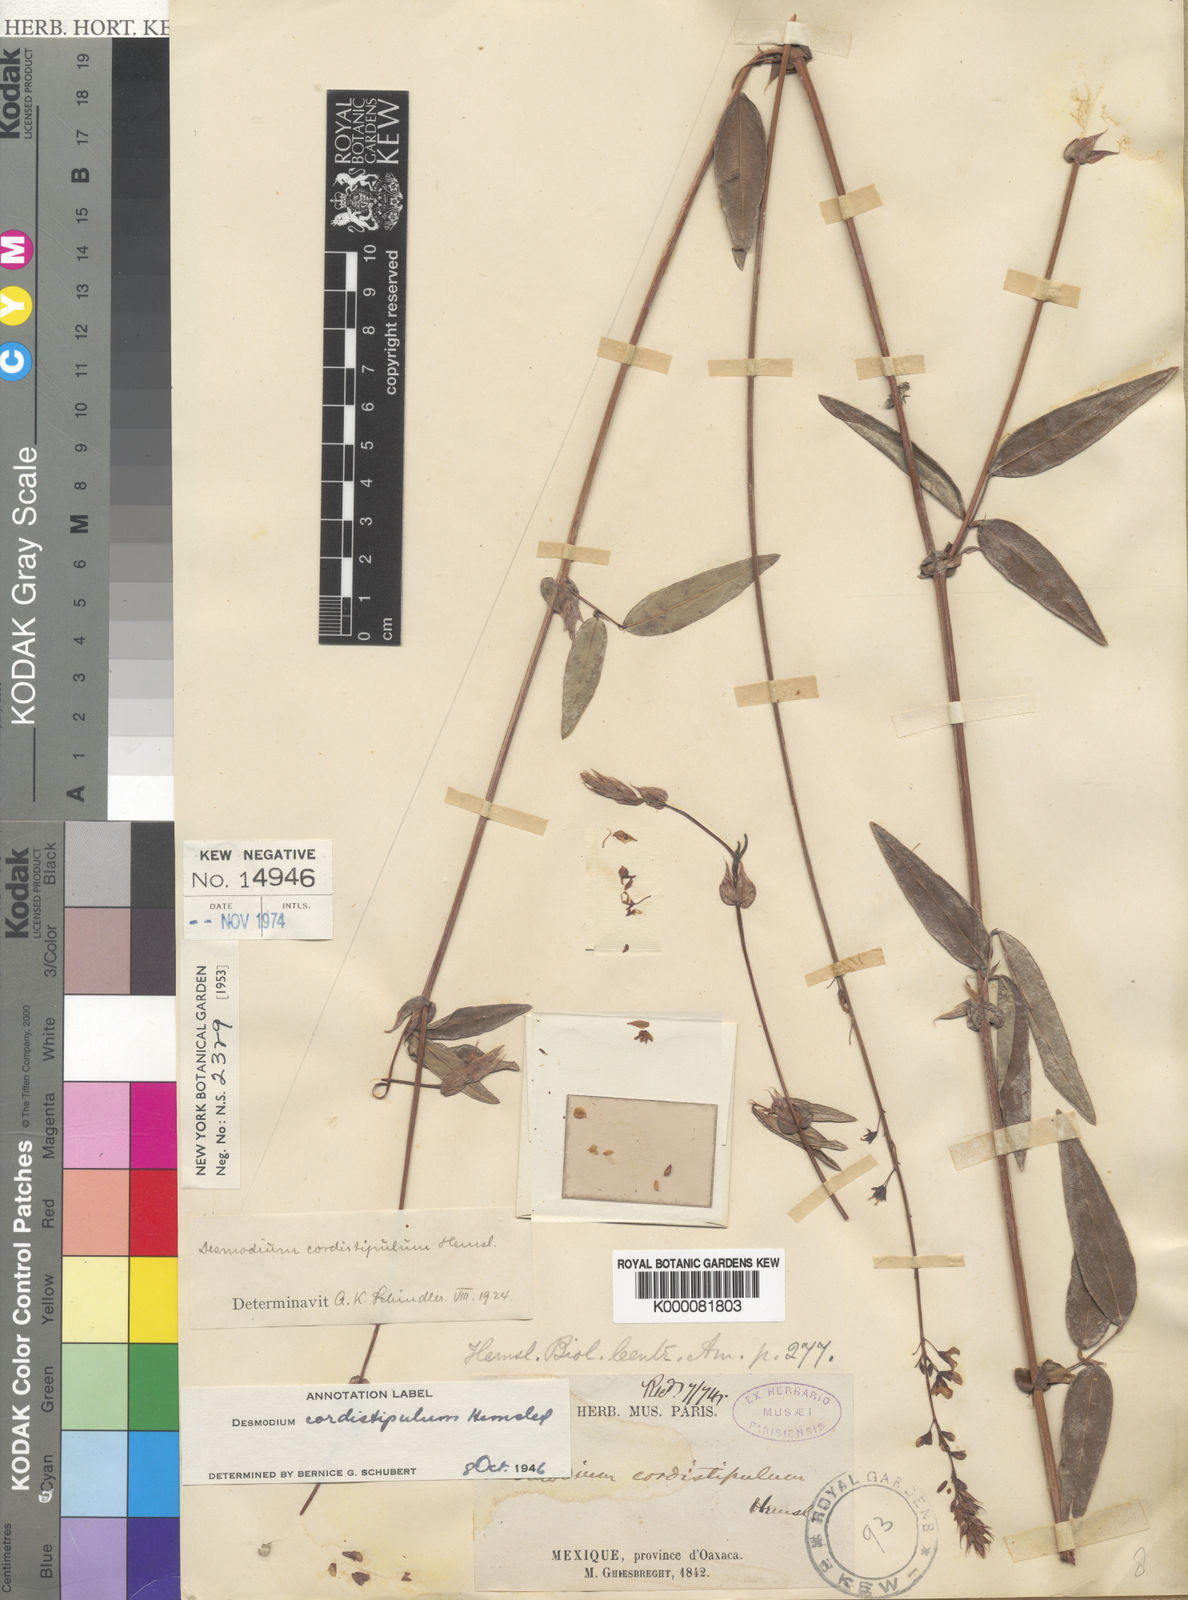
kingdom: Plantae
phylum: Tracheophyta
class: Magnoliopsida
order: Fabales
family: Fabaceae
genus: Desmodium
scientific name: Desmodium cordistipulum
